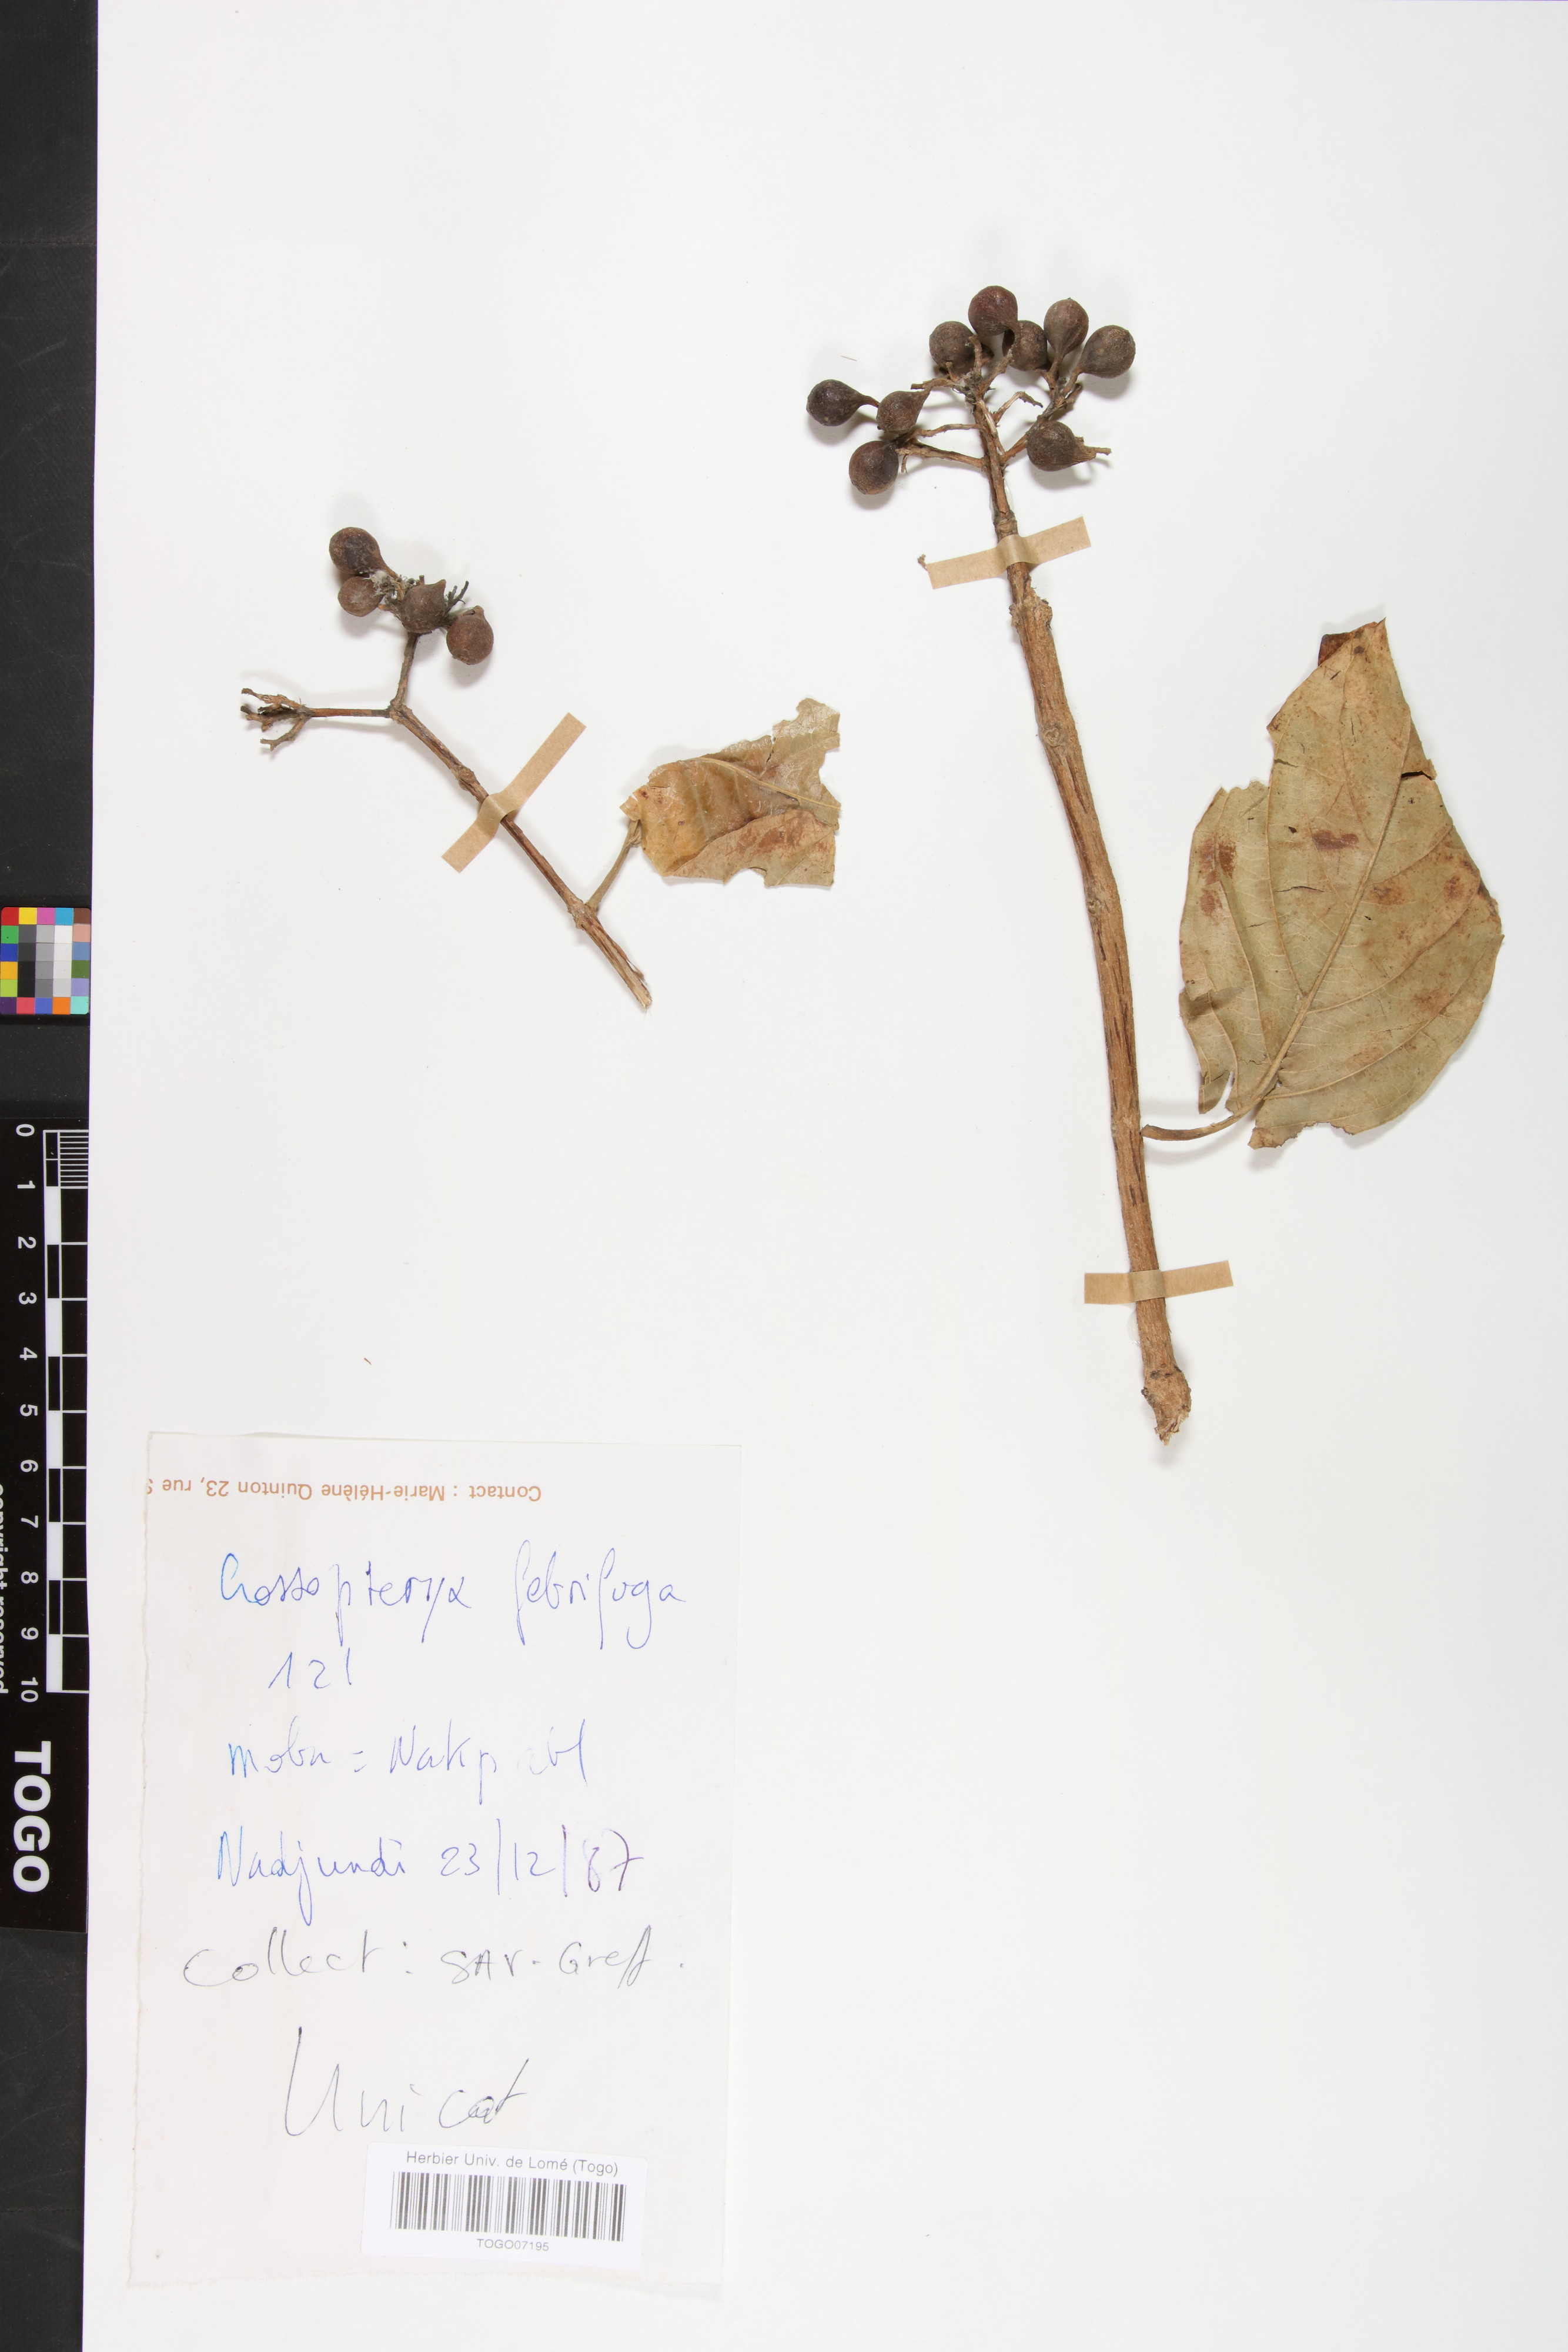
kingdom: Plantae
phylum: Tracheophyta
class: Magnoliopsida
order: Gentianales
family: Rubiaceae
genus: Crossopteryx
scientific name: Crossopteryx febrifuga
